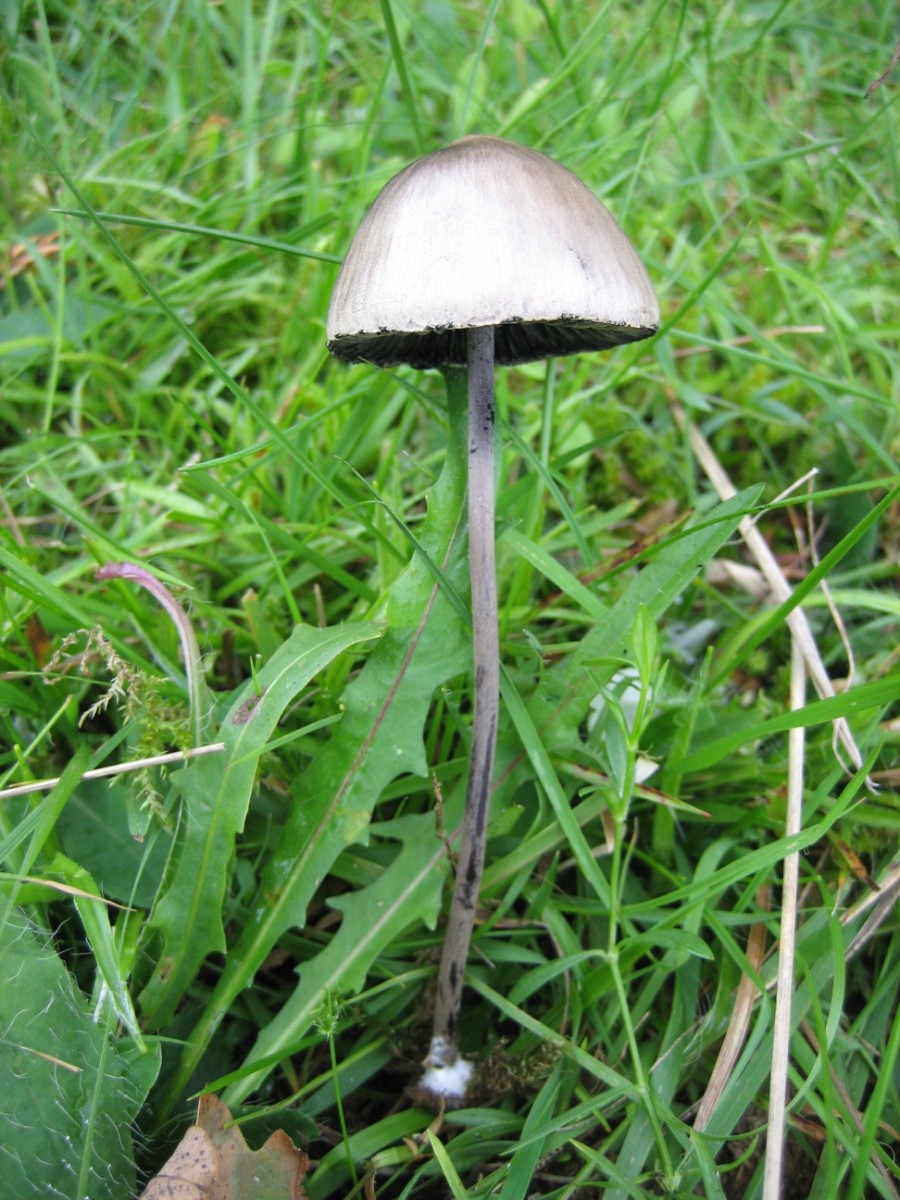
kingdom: Fungi
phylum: Basidiomycota
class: Agaricomycetes
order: Agaricales
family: Bolbitiaceae
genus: Panaeolus
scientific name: Panaeolus papilionaceus
